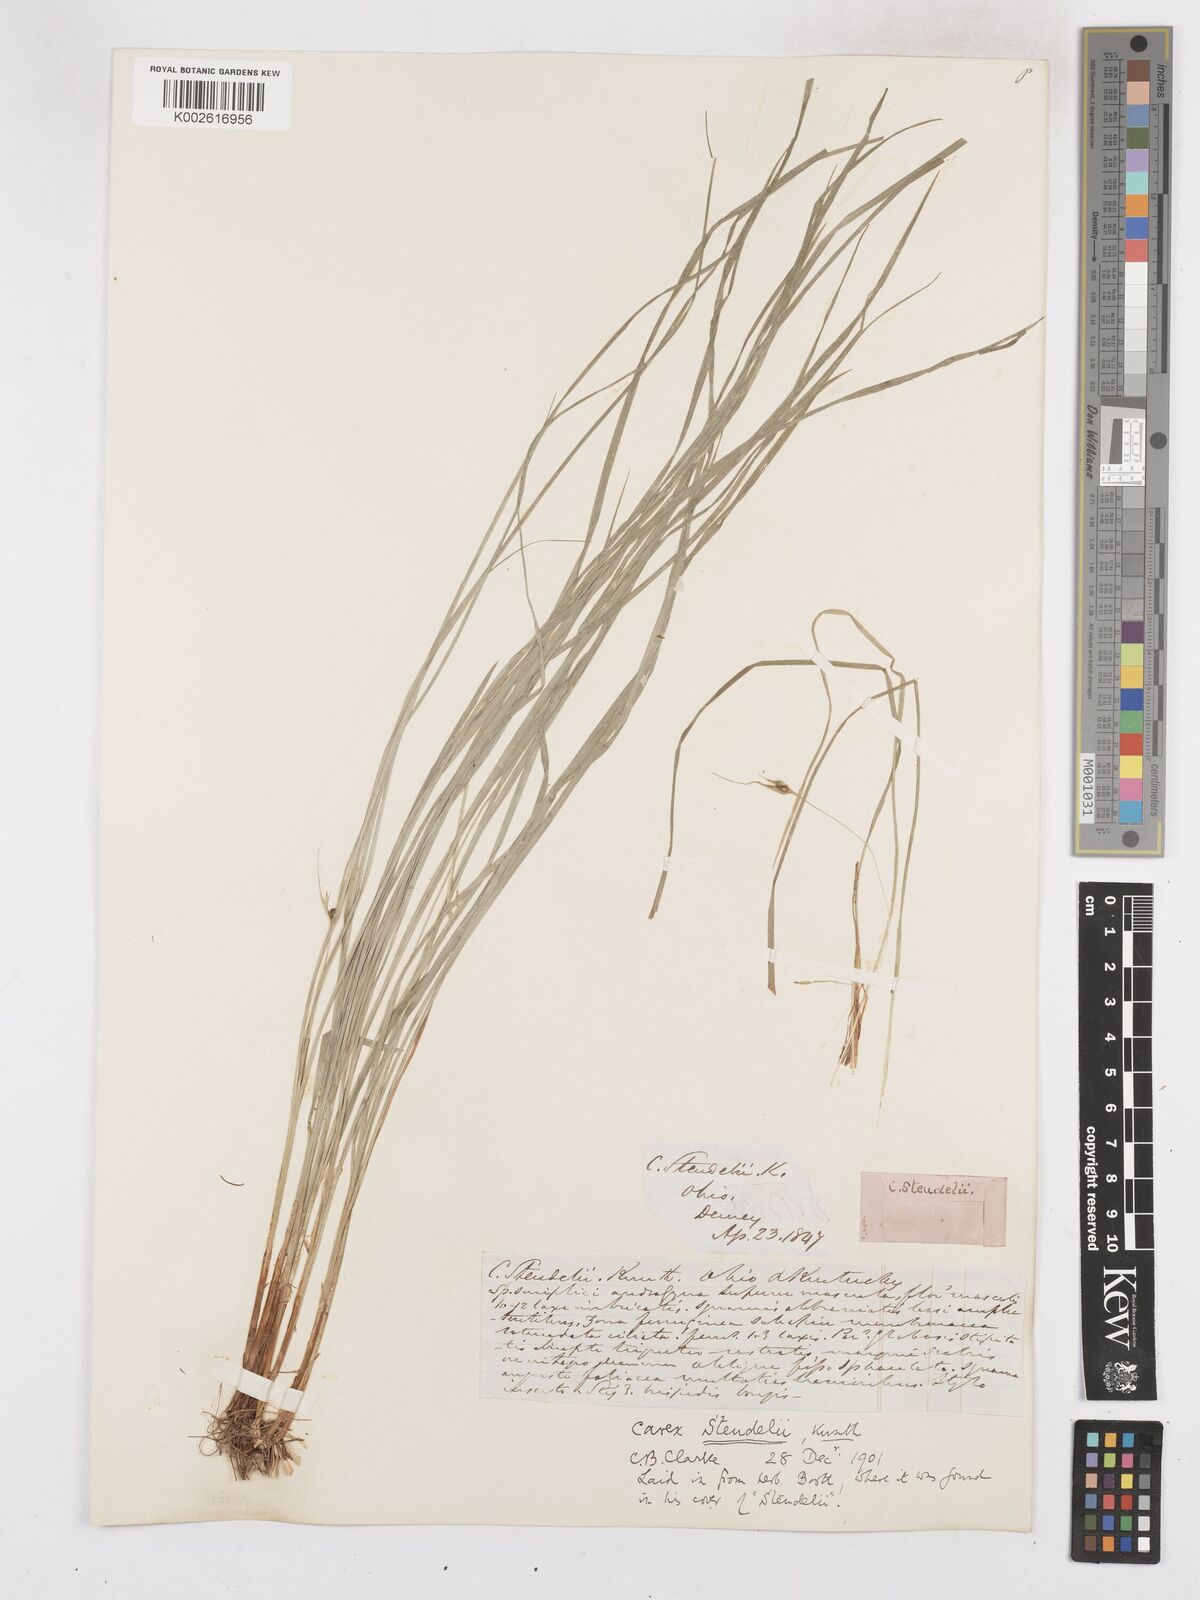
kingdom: Plantae
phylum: Tracheophyta
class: Liliopsida
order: Poales
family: Cyperaceae
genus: Carex
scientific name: Carex jamesii
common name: Grass sedge
